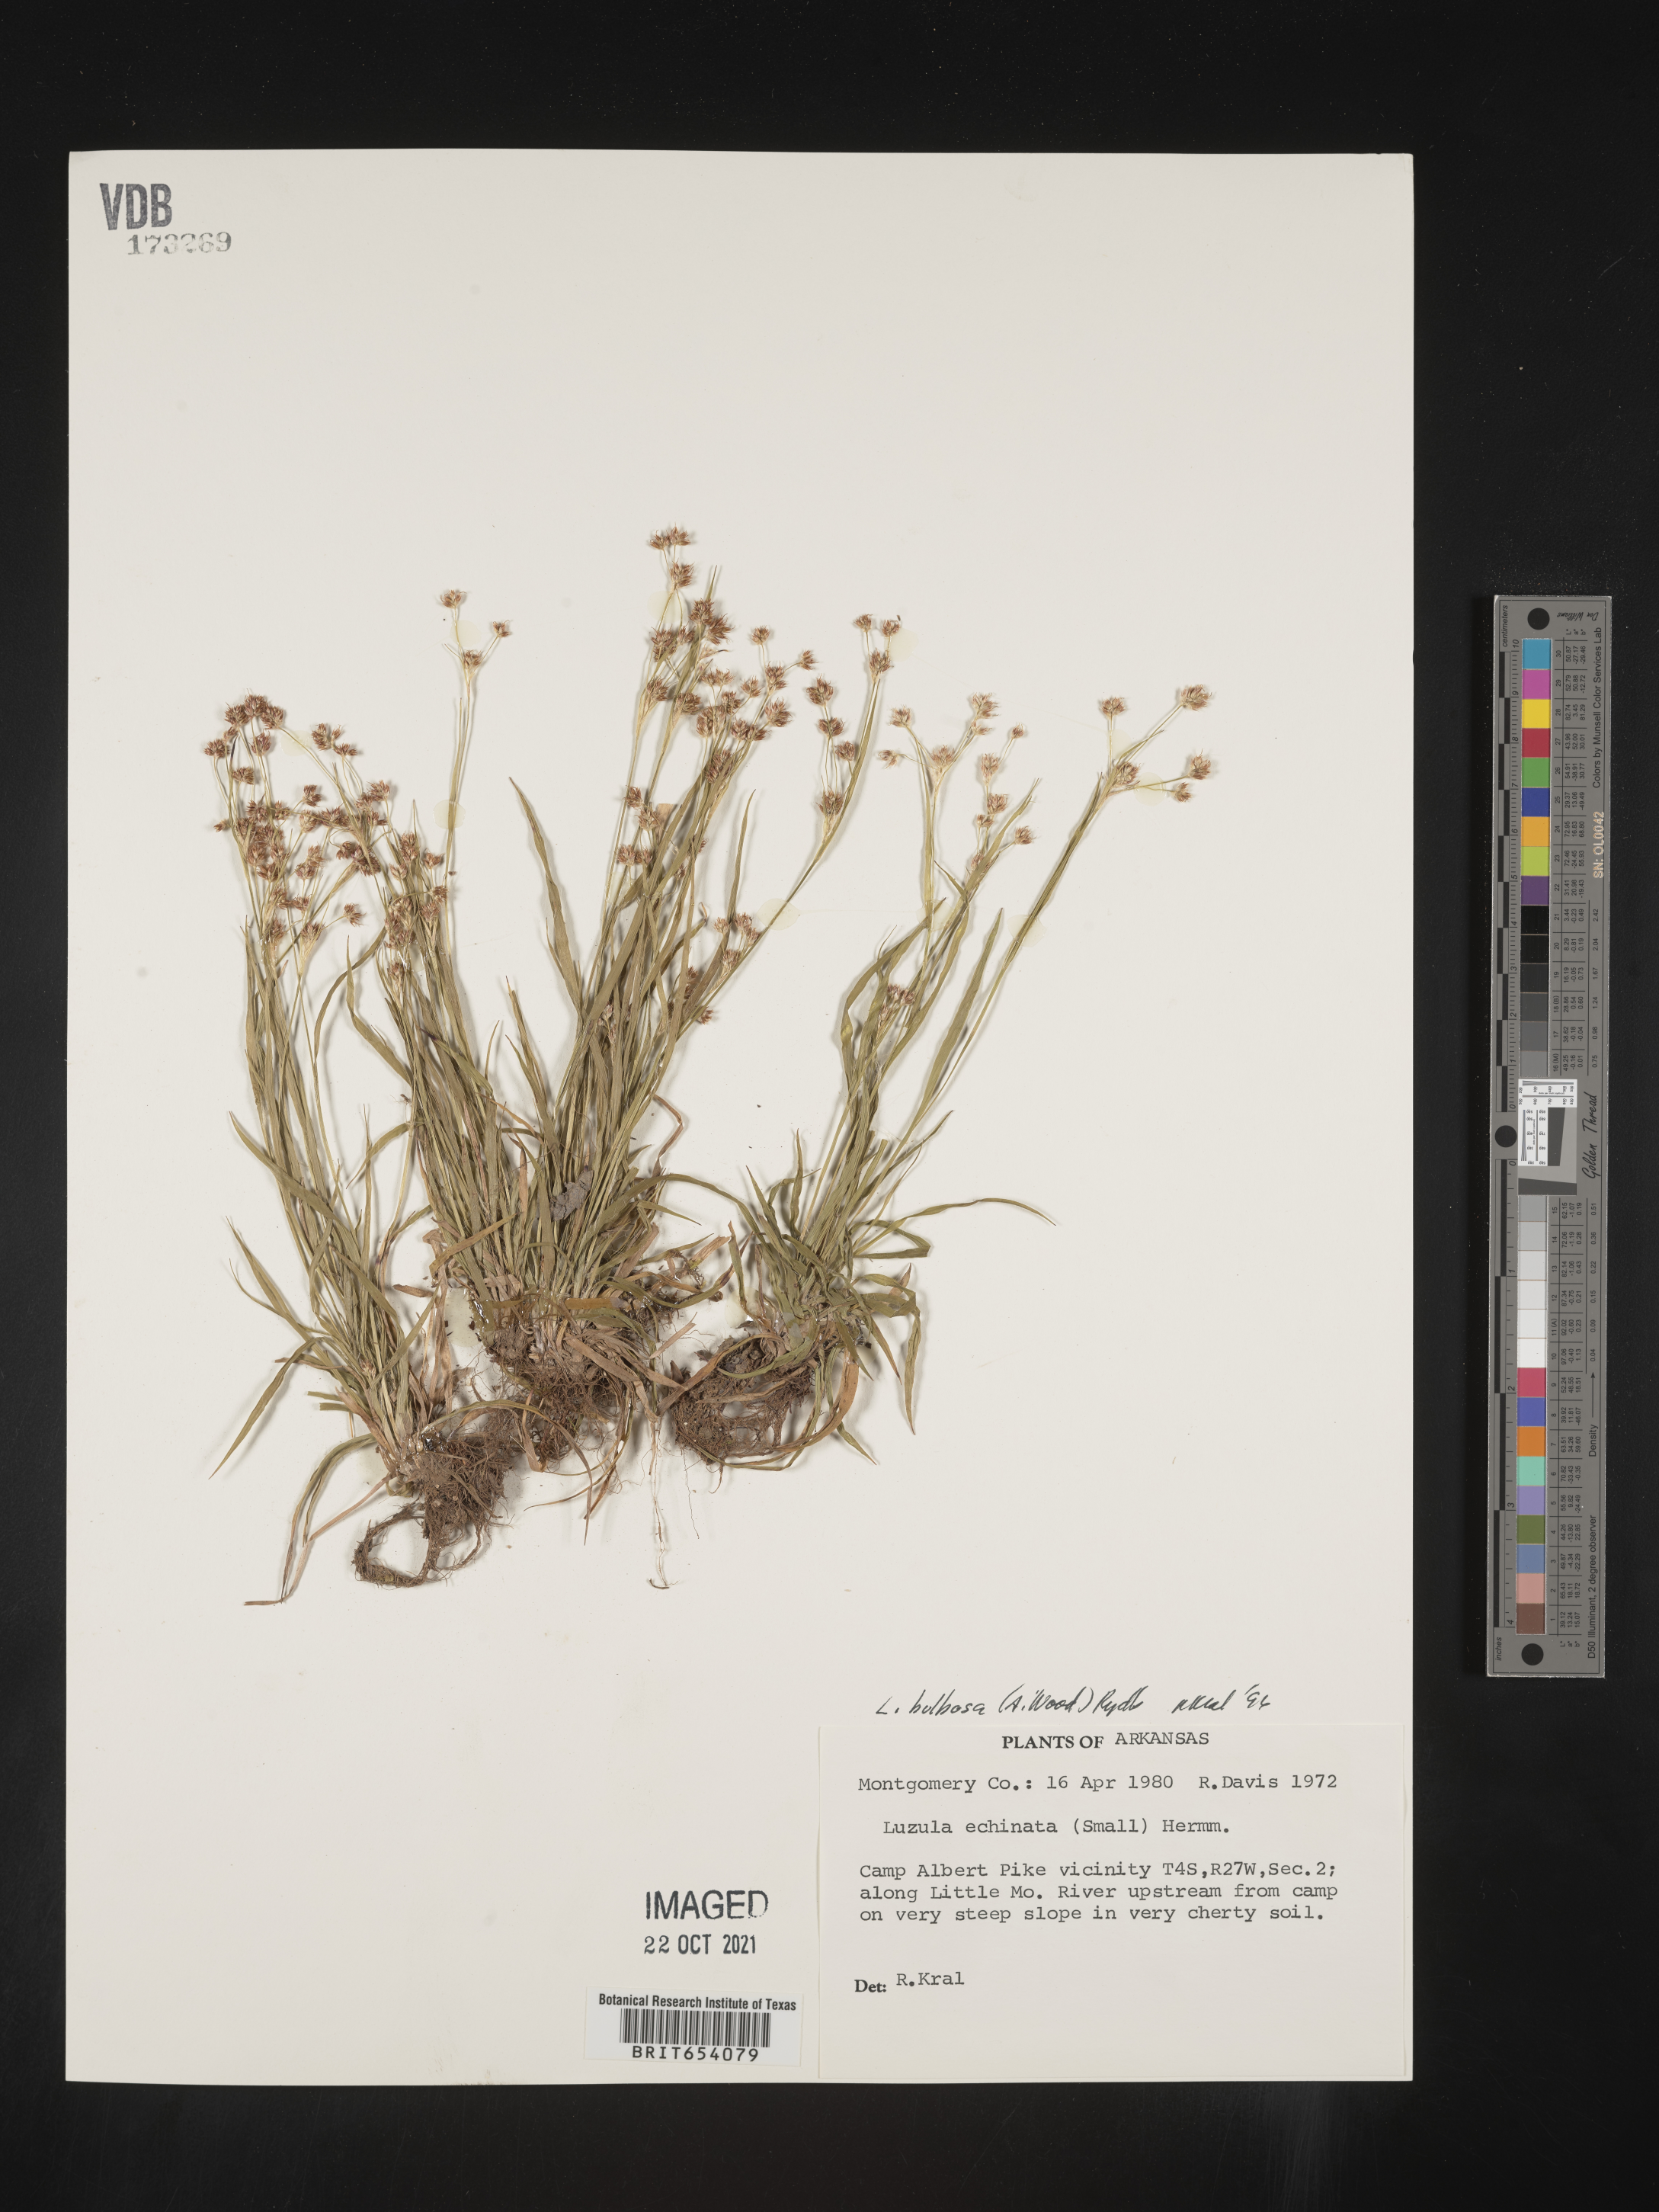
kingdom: Plantae
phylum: Tracheophyta
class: Liliopsida
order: Poales
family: Juncaceae
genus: Luzula
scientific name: Luzula bulbosa
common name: Bulbous woodrush
